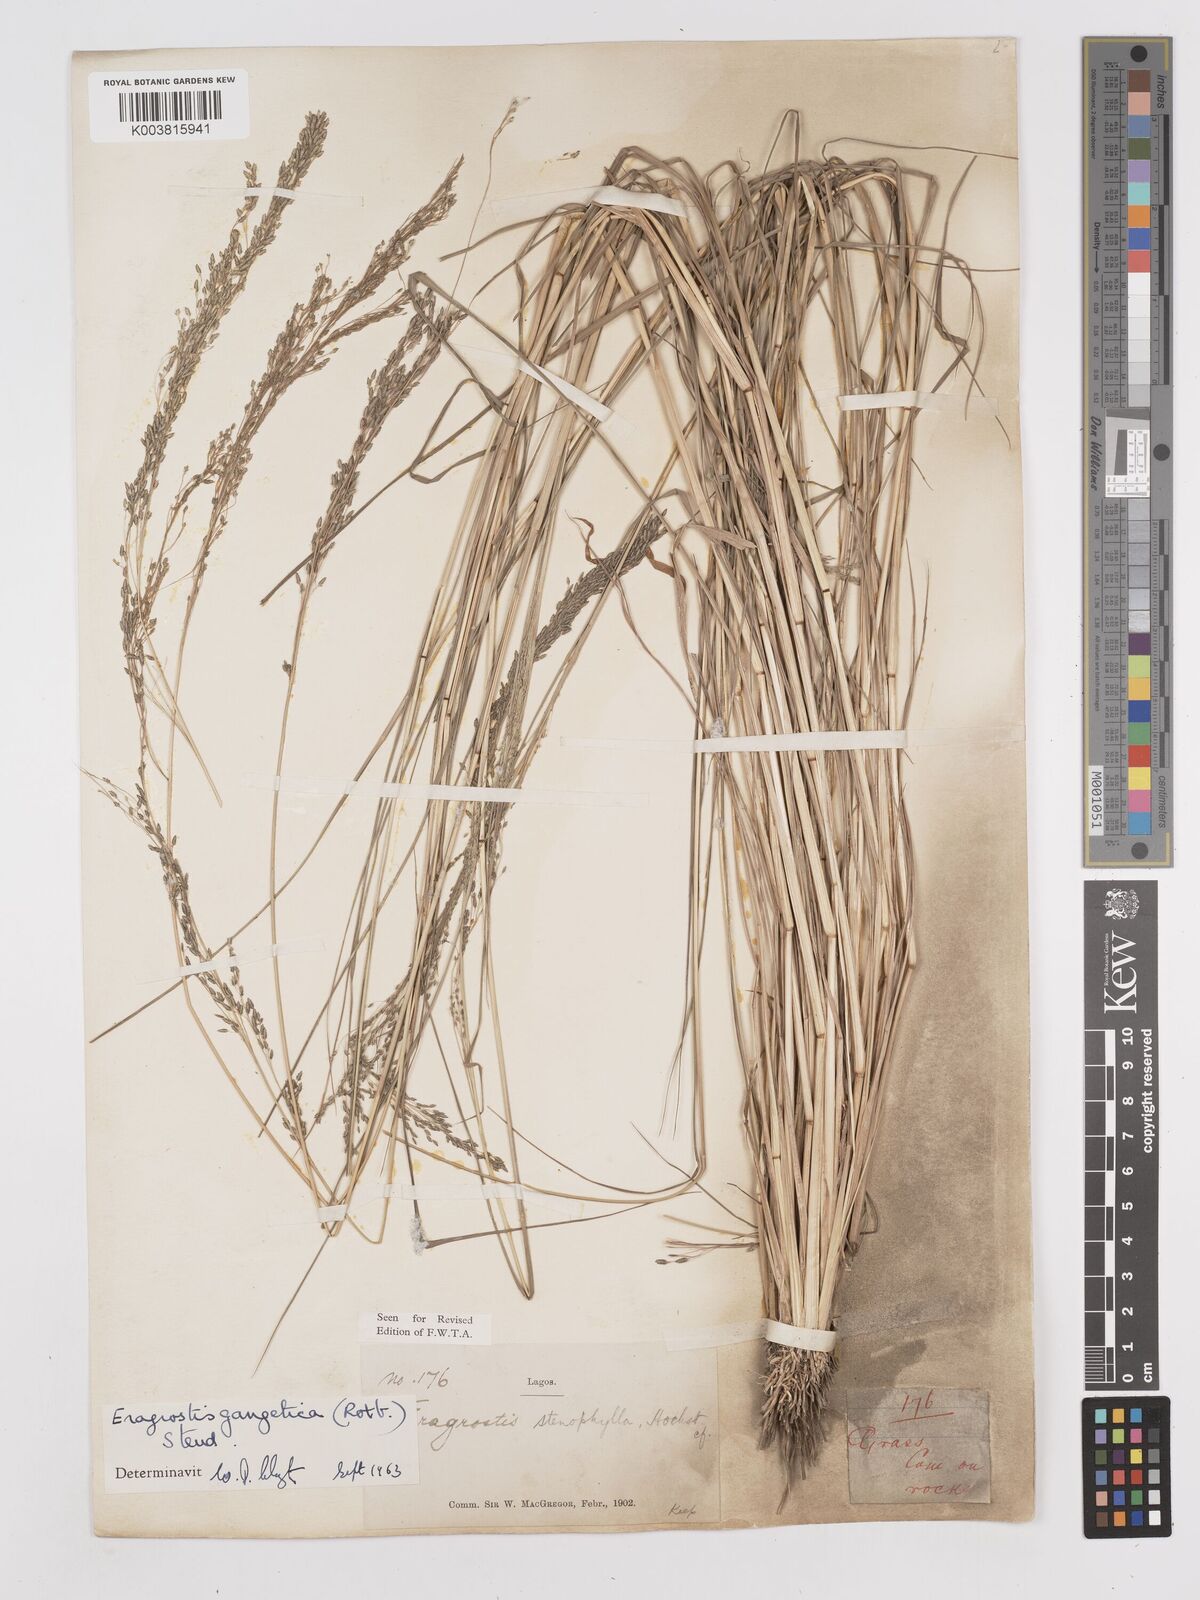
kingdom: Plantae
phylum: Tracheophyta
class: Liliopsida
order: Poales
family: Poaceae
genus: Eragrostis
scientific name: Eragrostis gangetica
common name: Slimflower lovegrass
